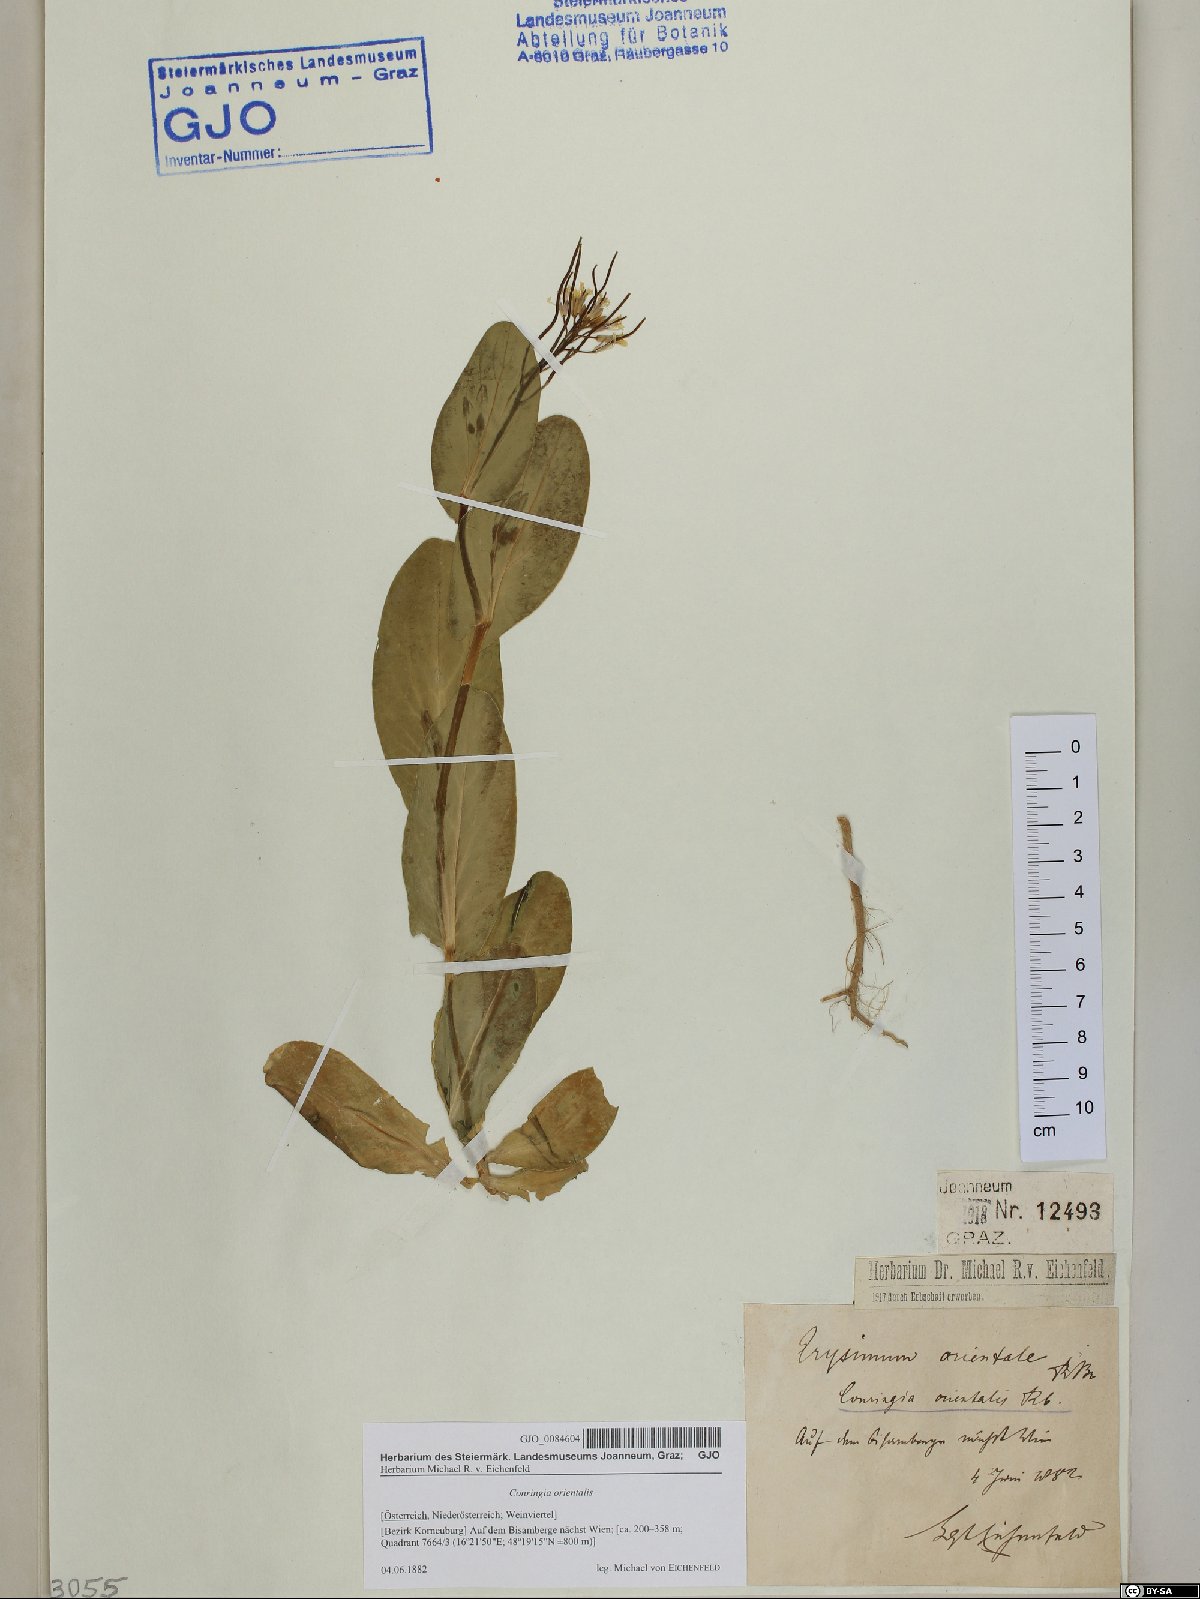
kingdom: Plantae
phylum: Tracheophyta
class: Magnoliopsida
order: Brassicales
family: Brassicaceae
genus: Conringia
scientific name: Conringia orientalis
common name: Hare's ear mustard
